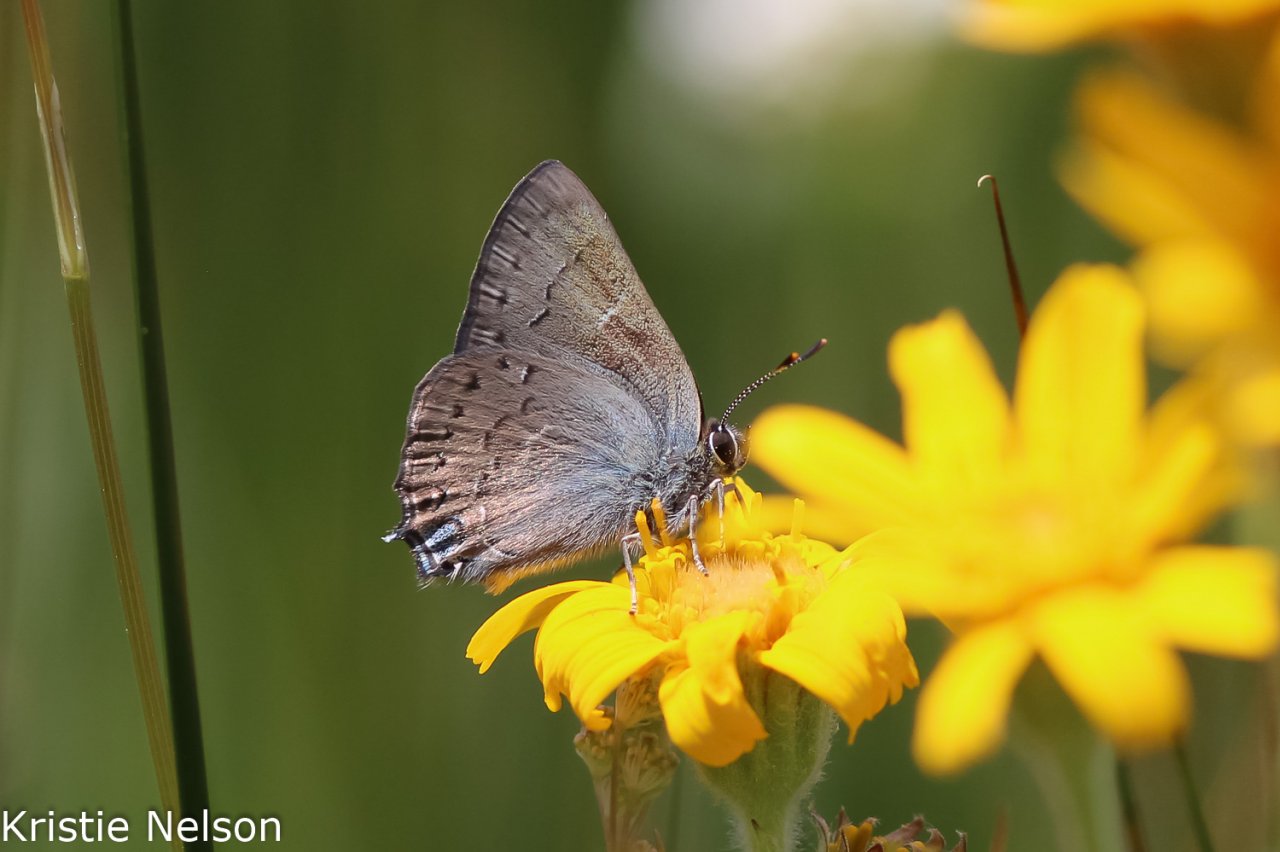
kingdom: Animalia
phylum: Arthropoda
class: Insecta
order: Lepidoptera
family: Lycaenidae
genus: Strymon
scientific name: Strymon saepium
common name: Hedgerow Hairstreak
